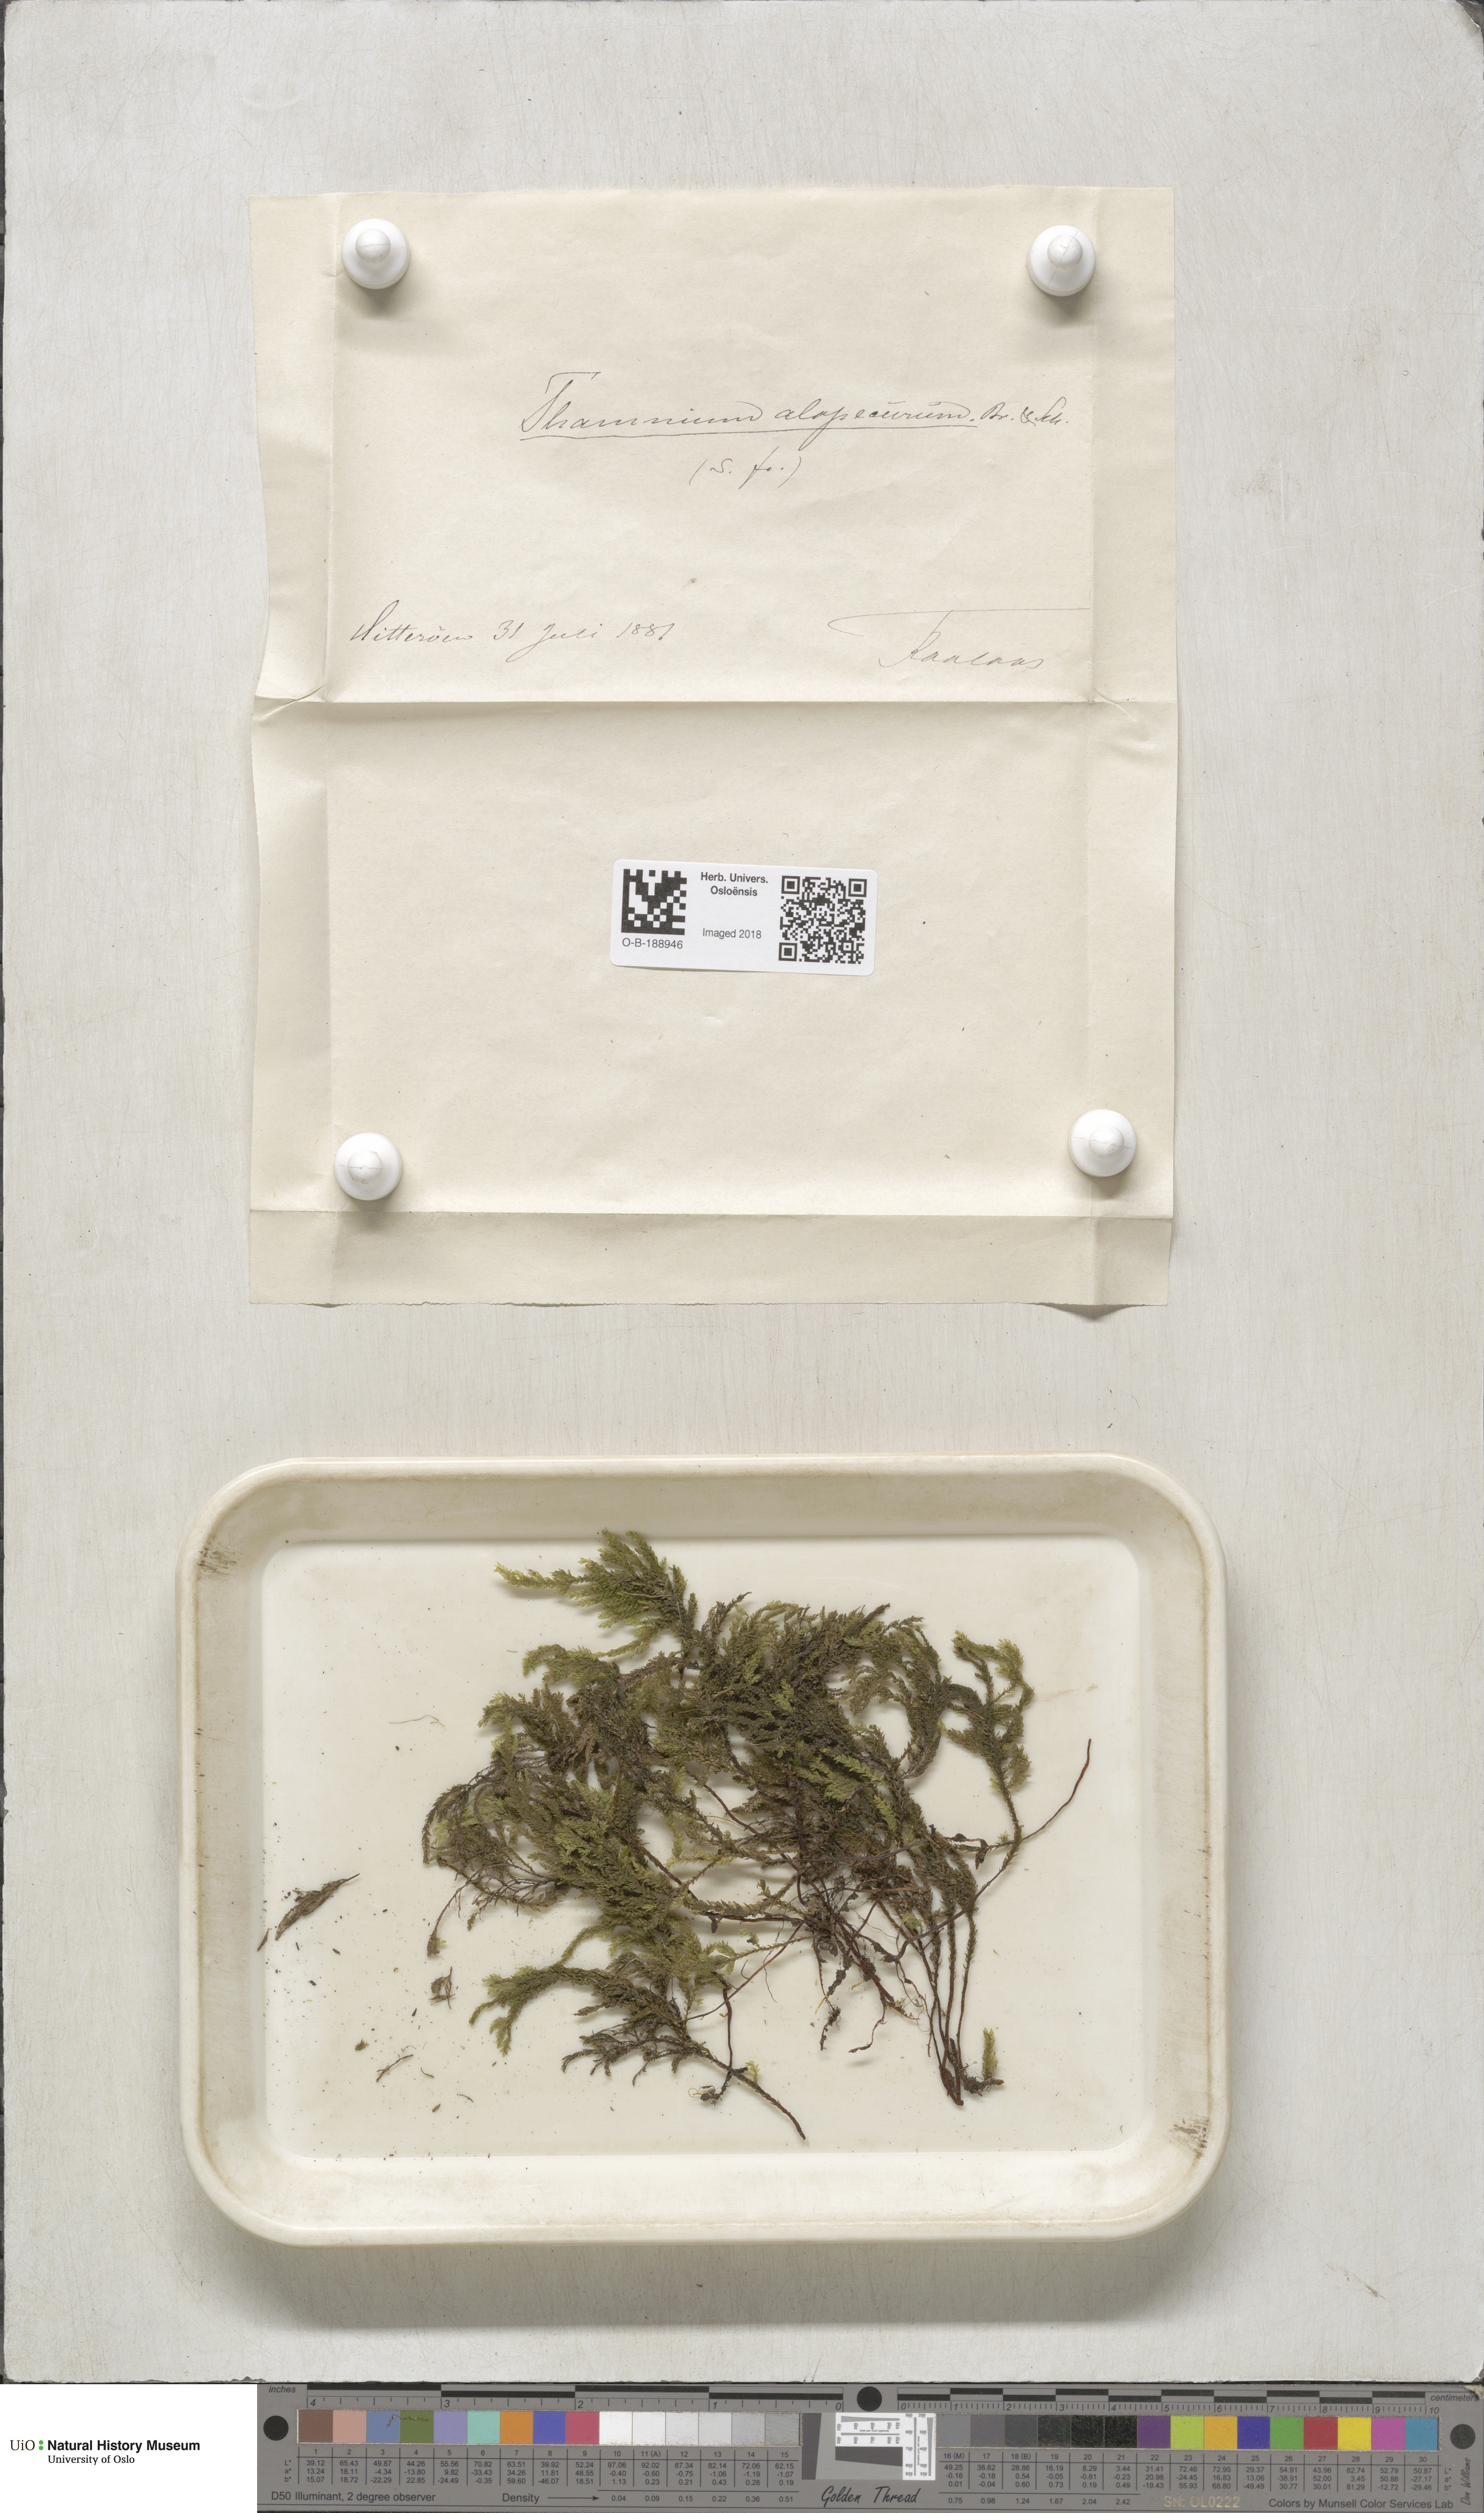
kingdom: Plantae
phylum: Bryophyta
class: Bryopsida
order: Hypnales
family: Neckeraceae
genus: Thamnobryum
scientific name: Thamnobryum alopecurum
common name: Fox-tail feather-moss
